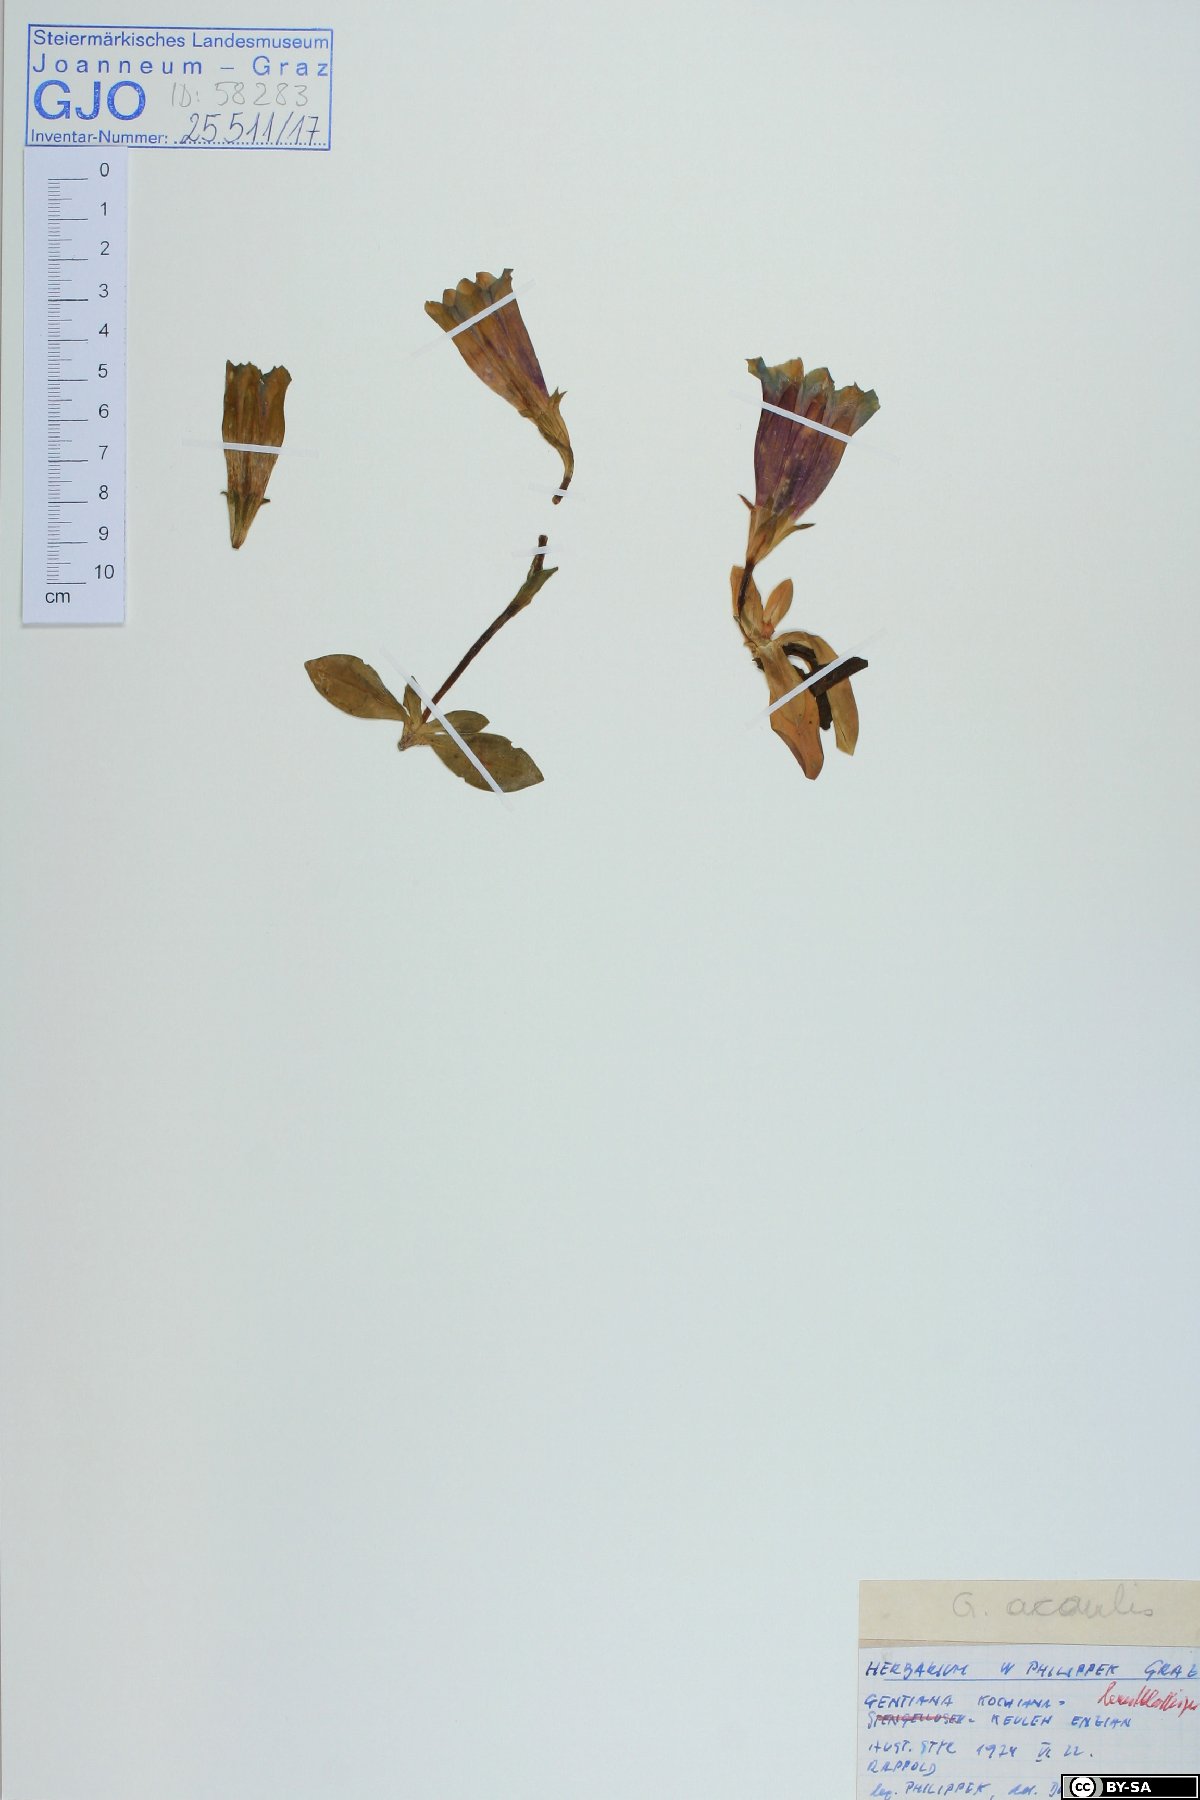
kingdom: Plantae
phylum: Tracheophyta
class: Magnoliopsida
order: Gentianales
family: Gentianaceae
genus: Gentiana
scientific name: Gentiana acaulis
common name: Trumpet gentian
